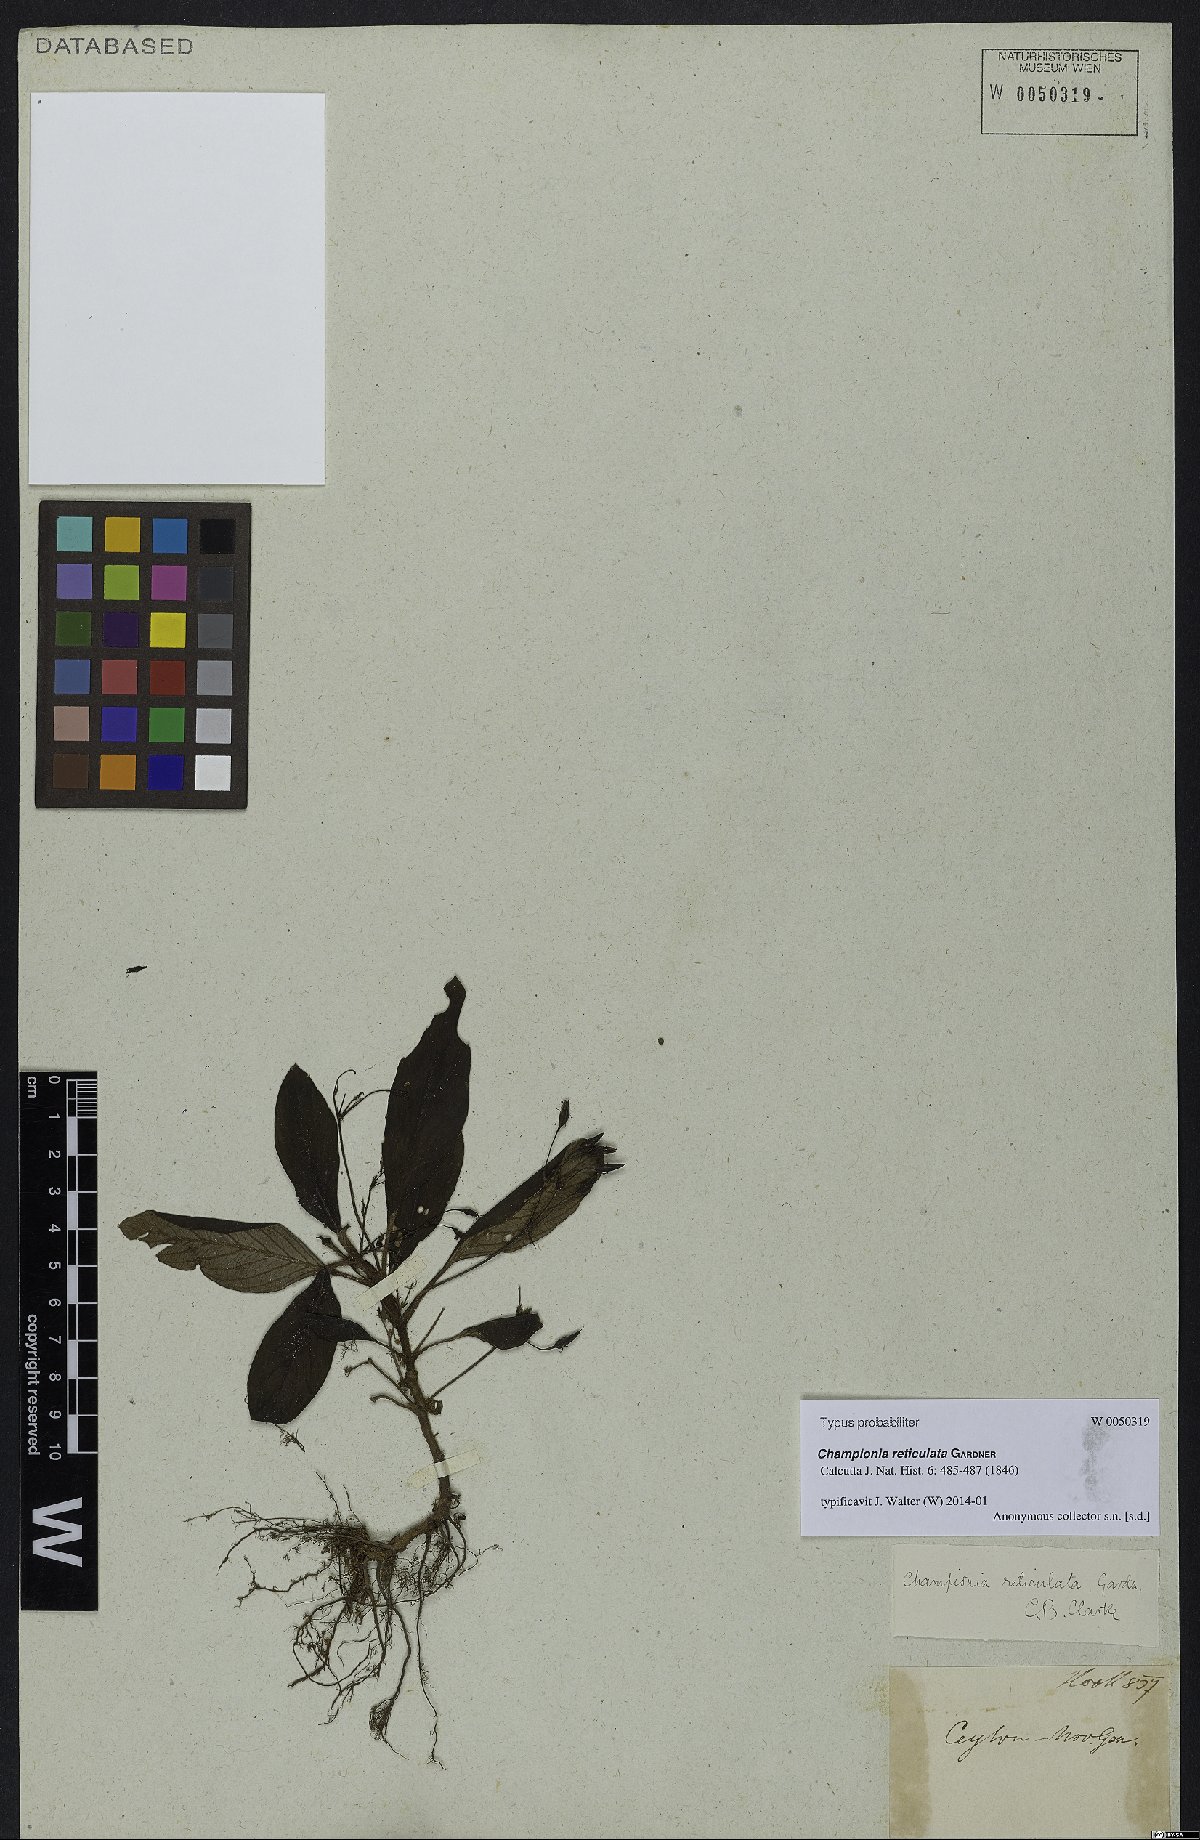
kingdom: Plantae
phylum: Tracheophyta
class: Magnoliopsida
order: Lamiales
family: Gesneriaceae
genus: Championia
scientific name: Championia reticulata
